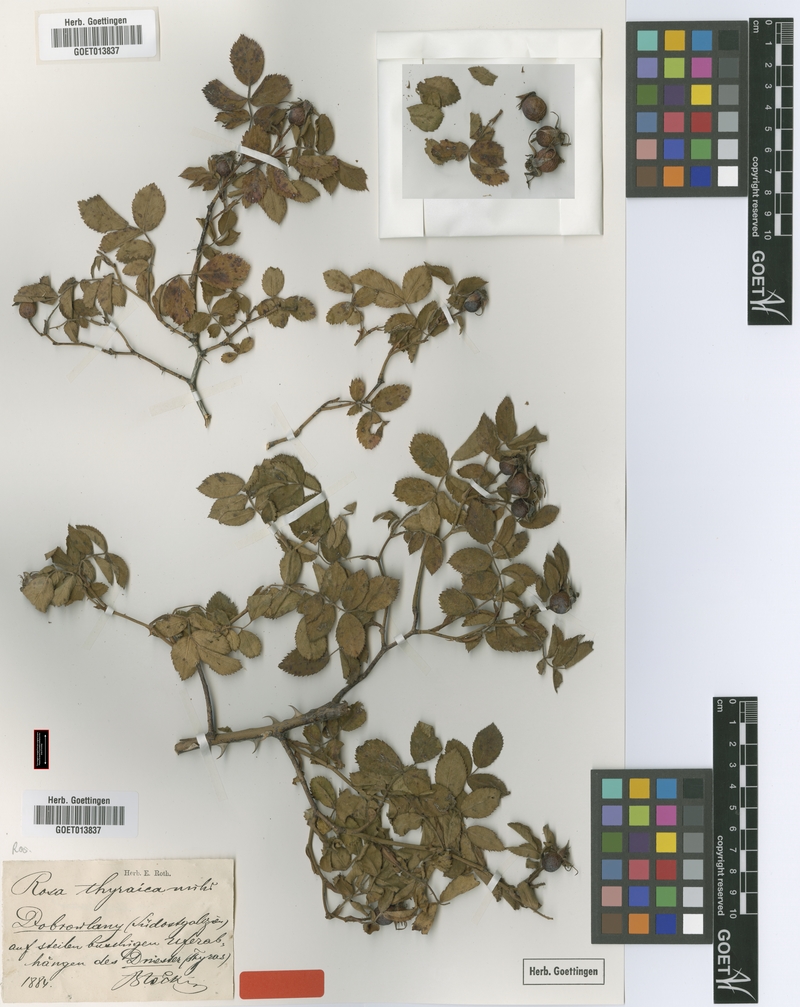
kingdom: Plantae
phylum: Tracheophyta
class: Magnoliopsida
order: Rosales
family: Rosaceae
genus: Rosa
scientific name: Rosa thyraica
